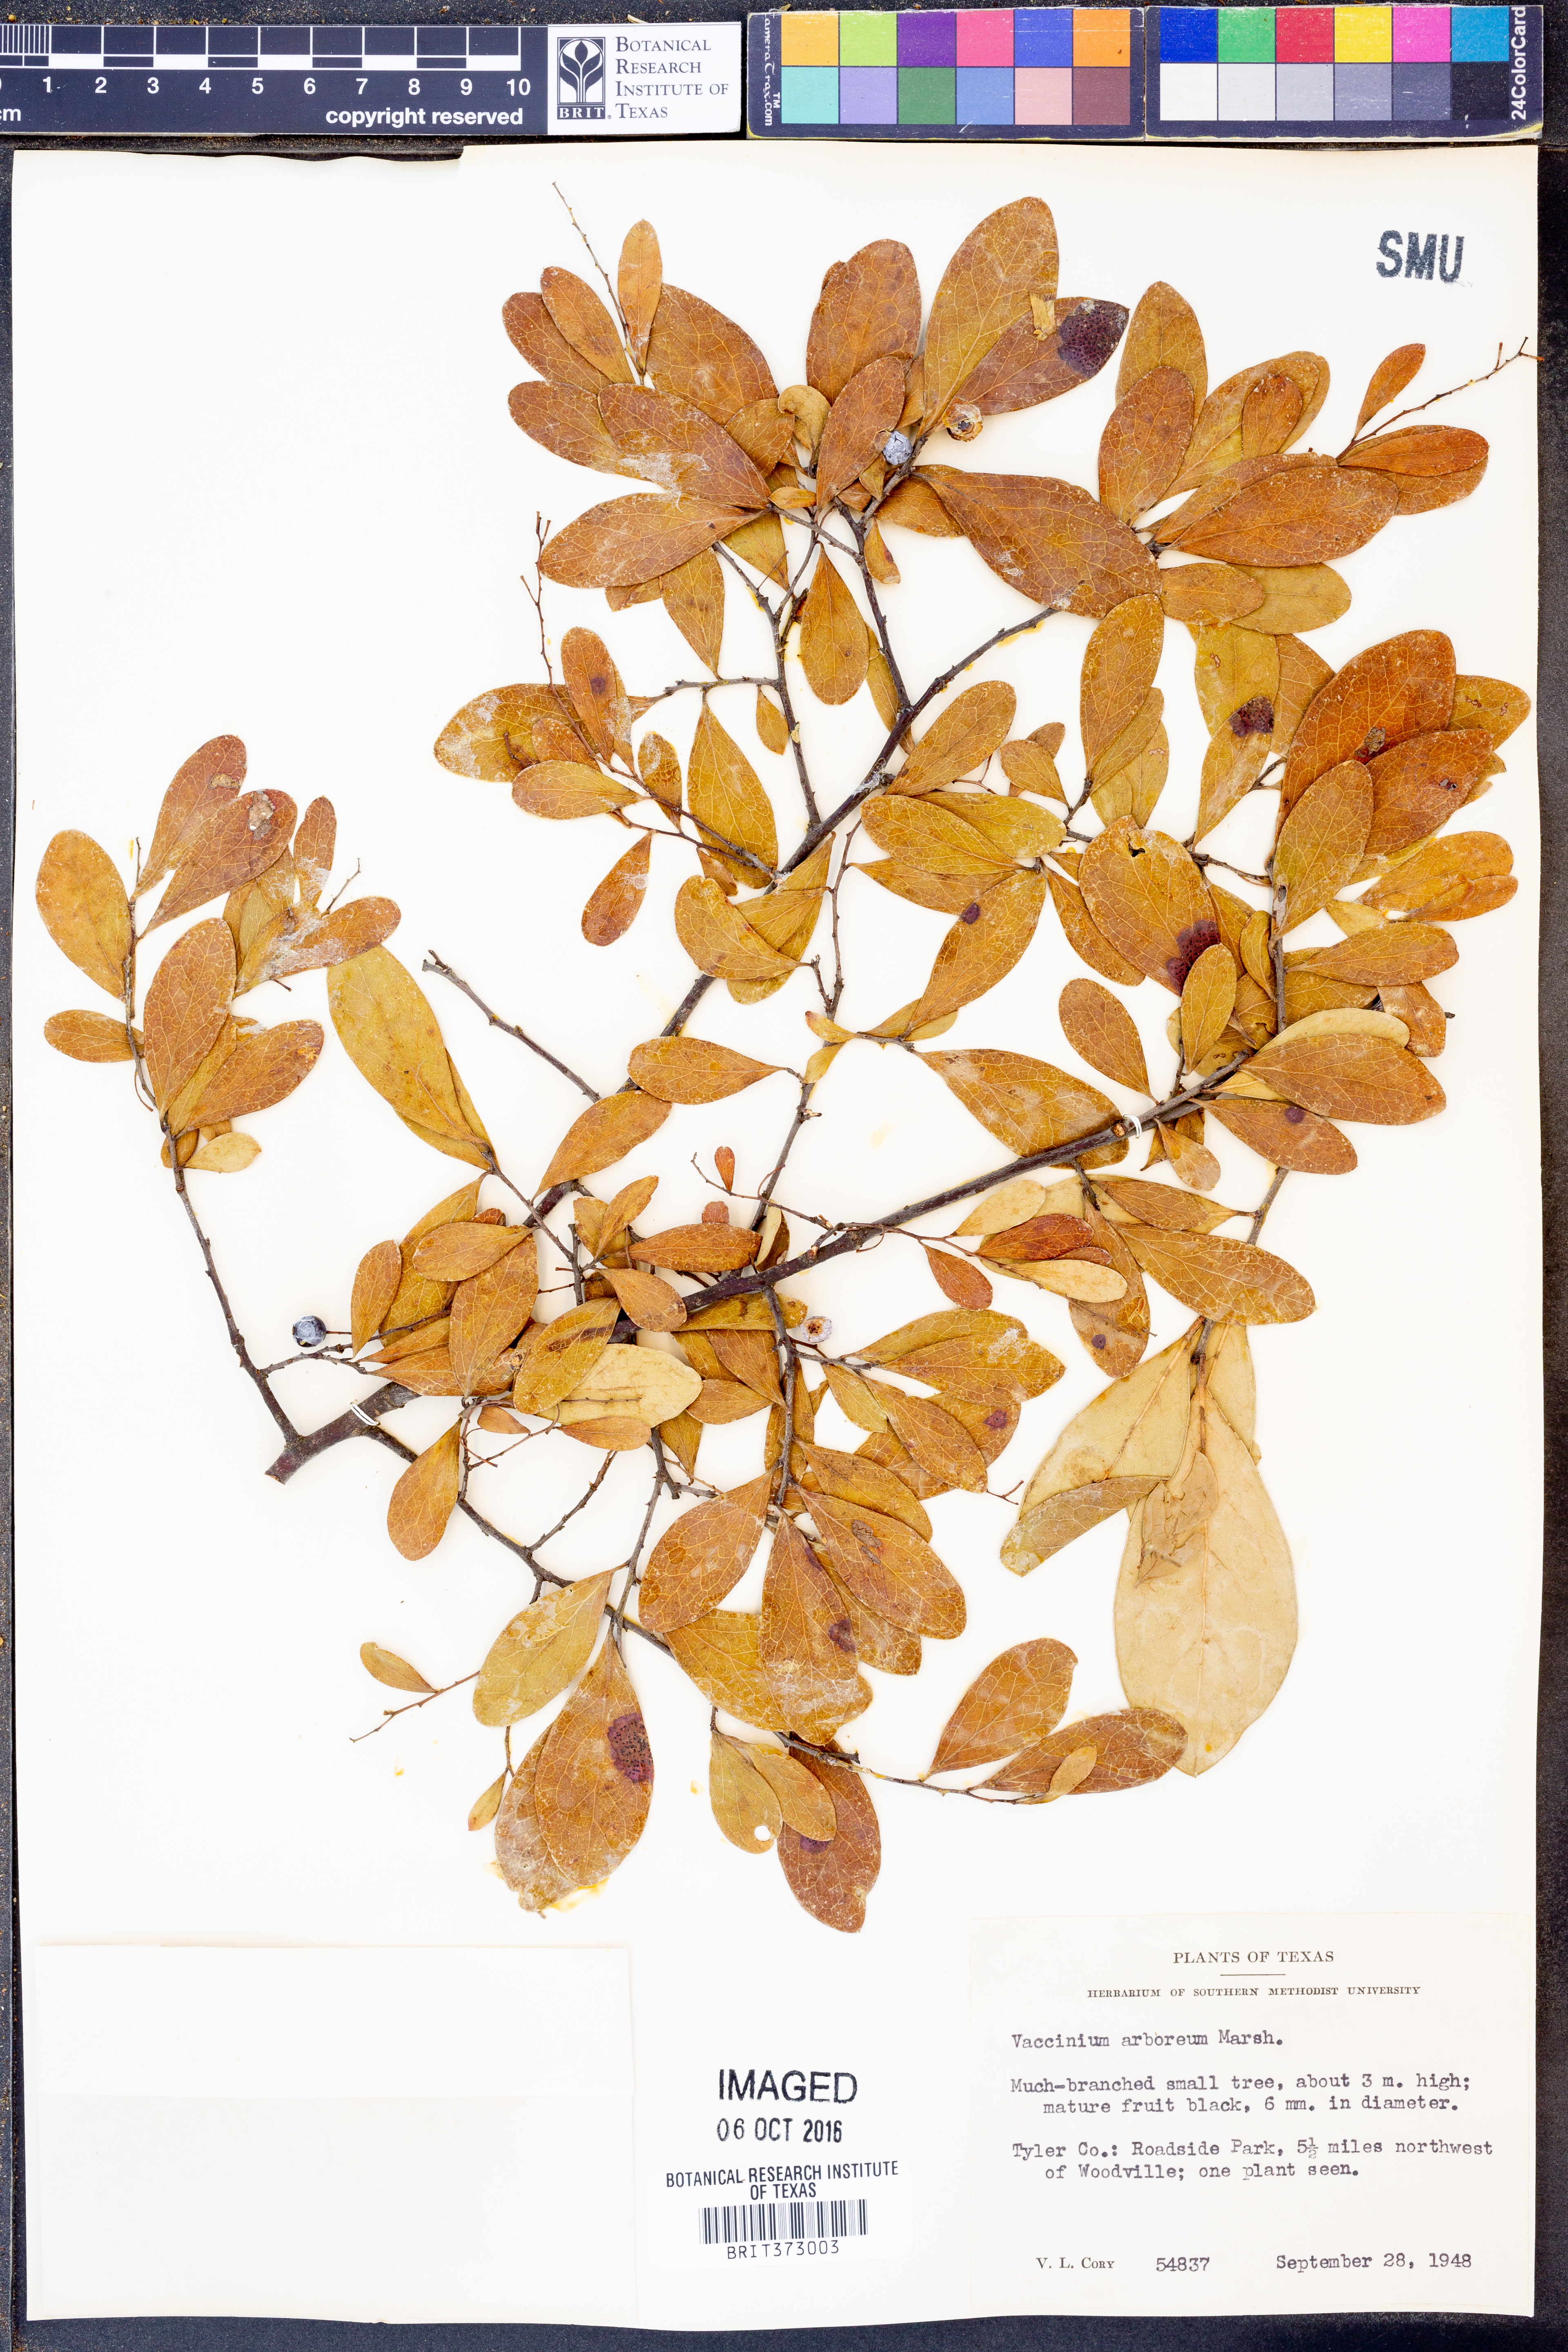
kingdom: Plantae
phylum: Tracheophyta
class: Magnoliopsida
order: Ericales
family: Ericaceae
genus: Vaccinium
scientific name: Vaccinium arboreum
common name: Farkleberry
